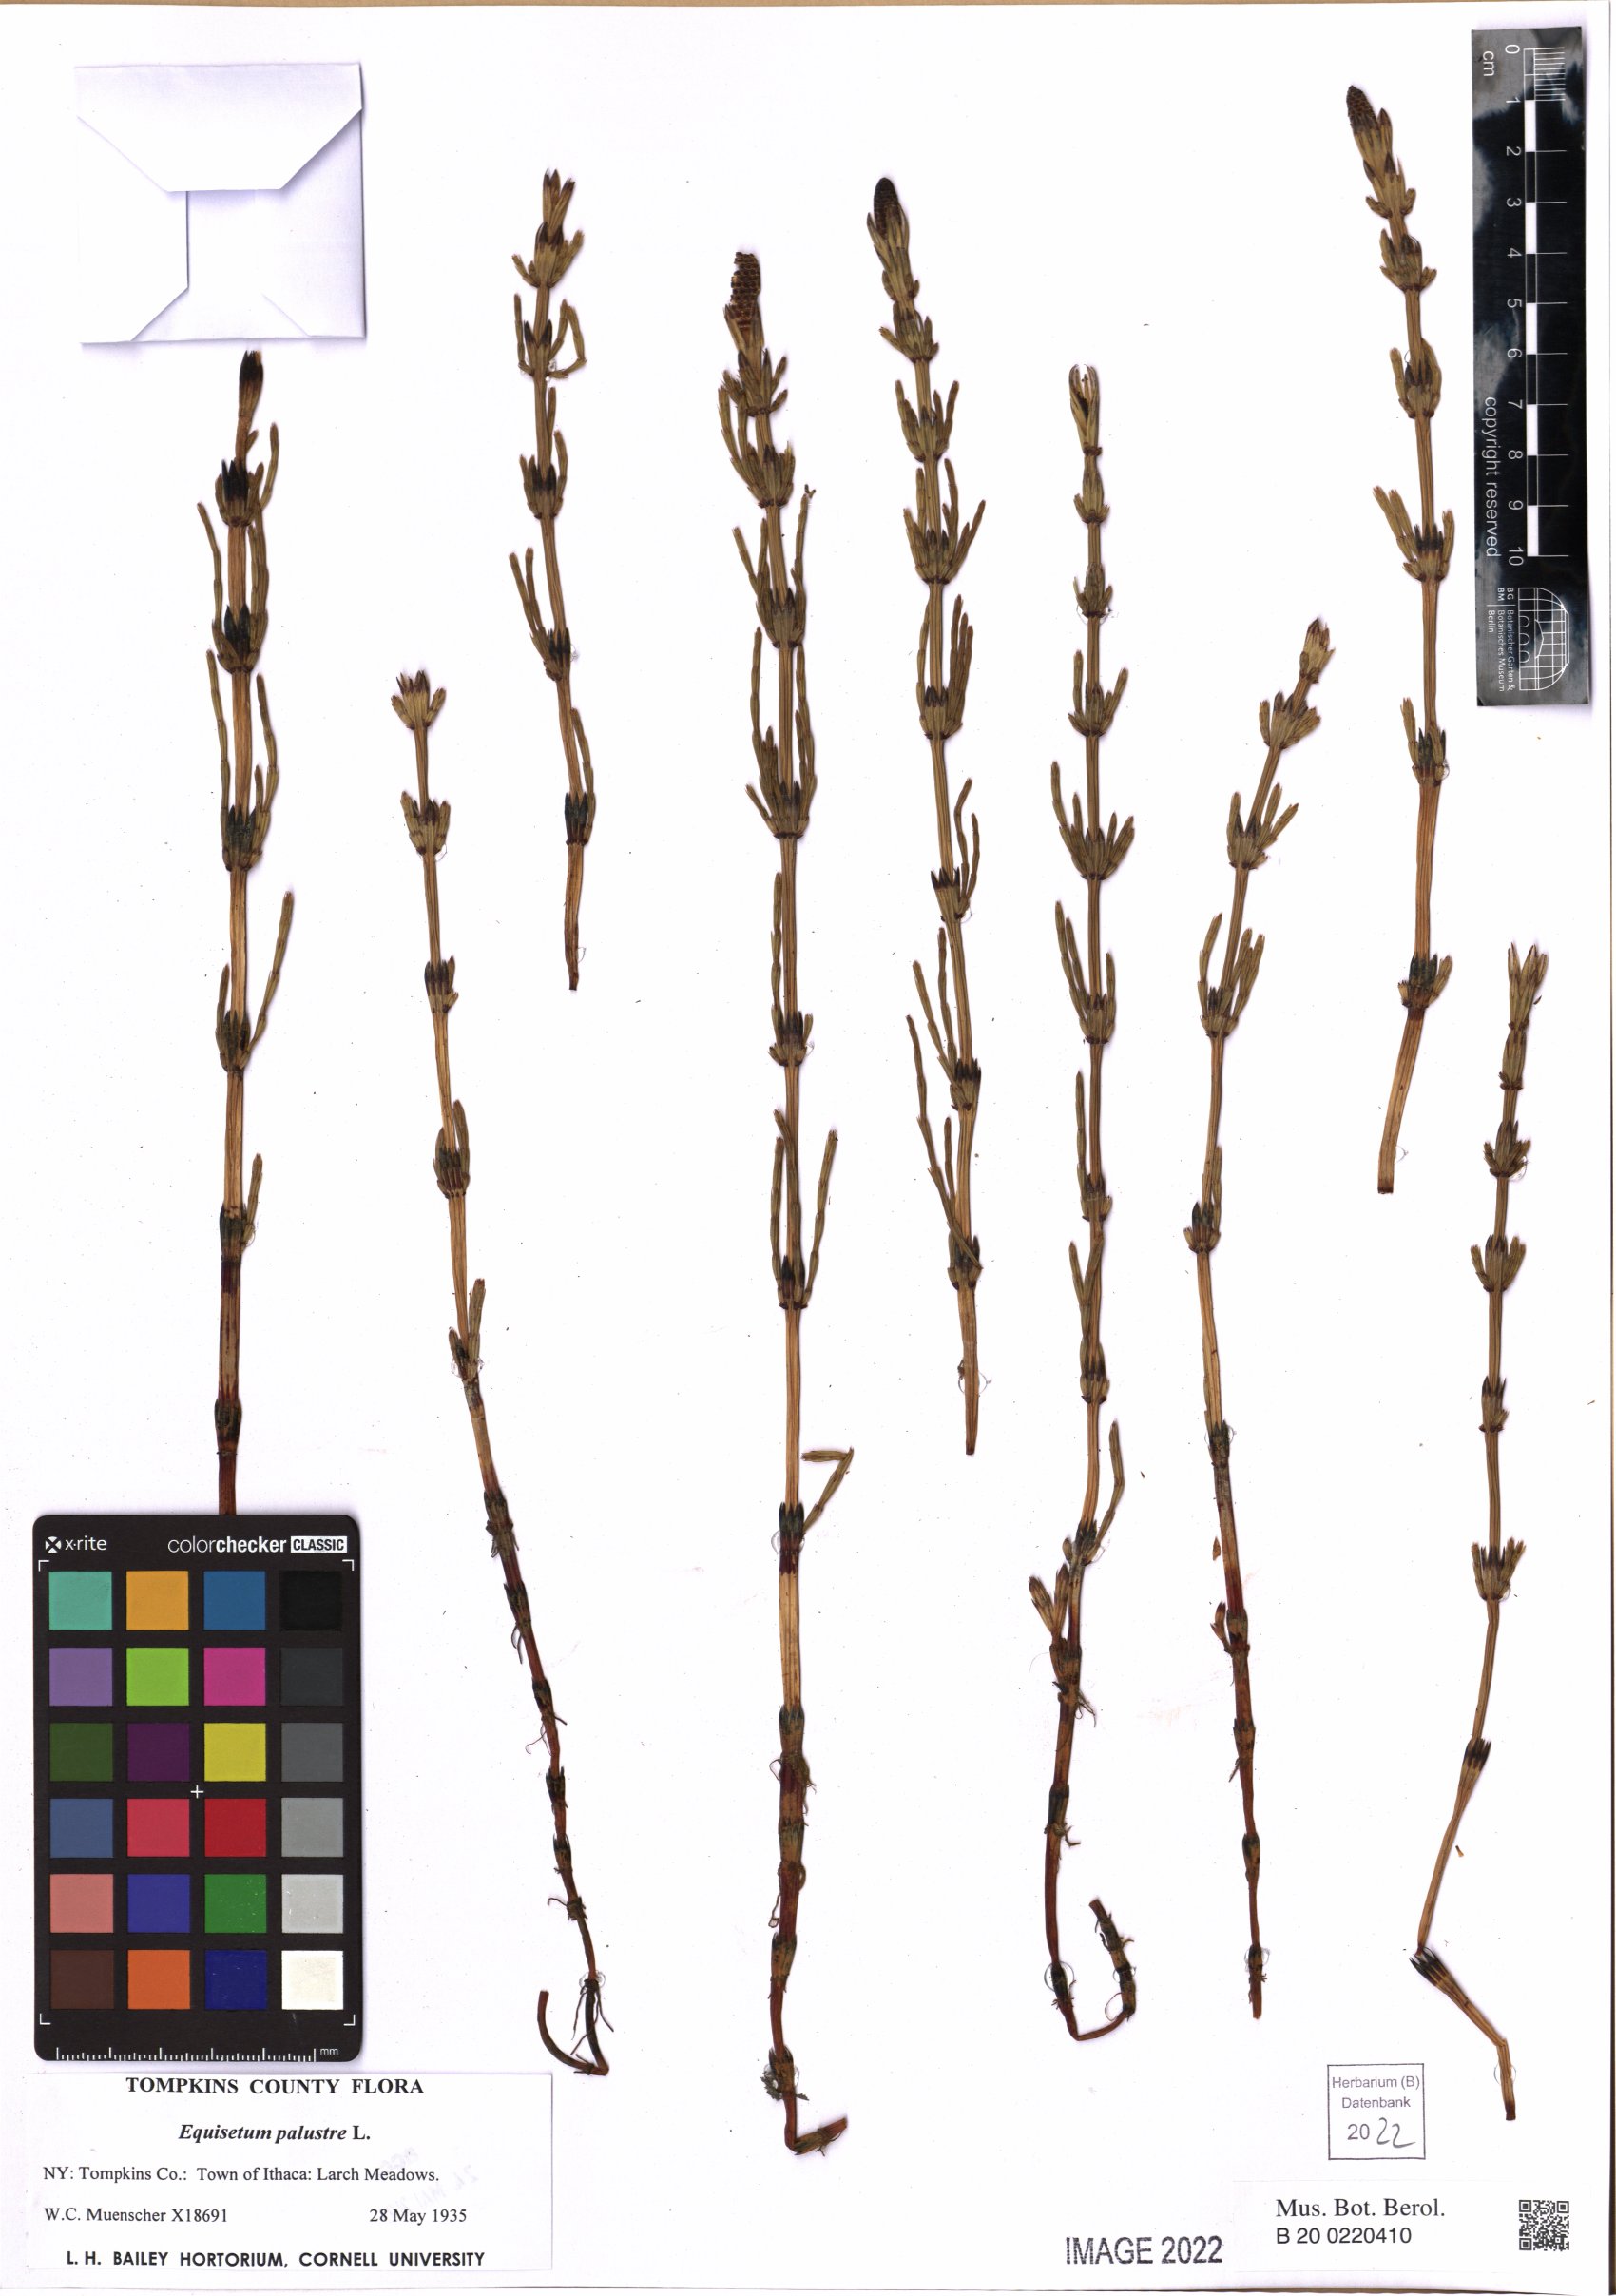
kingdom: Plantae
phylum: Tracheophyta
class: Polypodiopsida
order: Equisetales
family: Equisetaceae
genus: Equisetum
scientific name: Equisetum palustre
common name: Marsh horsetail
